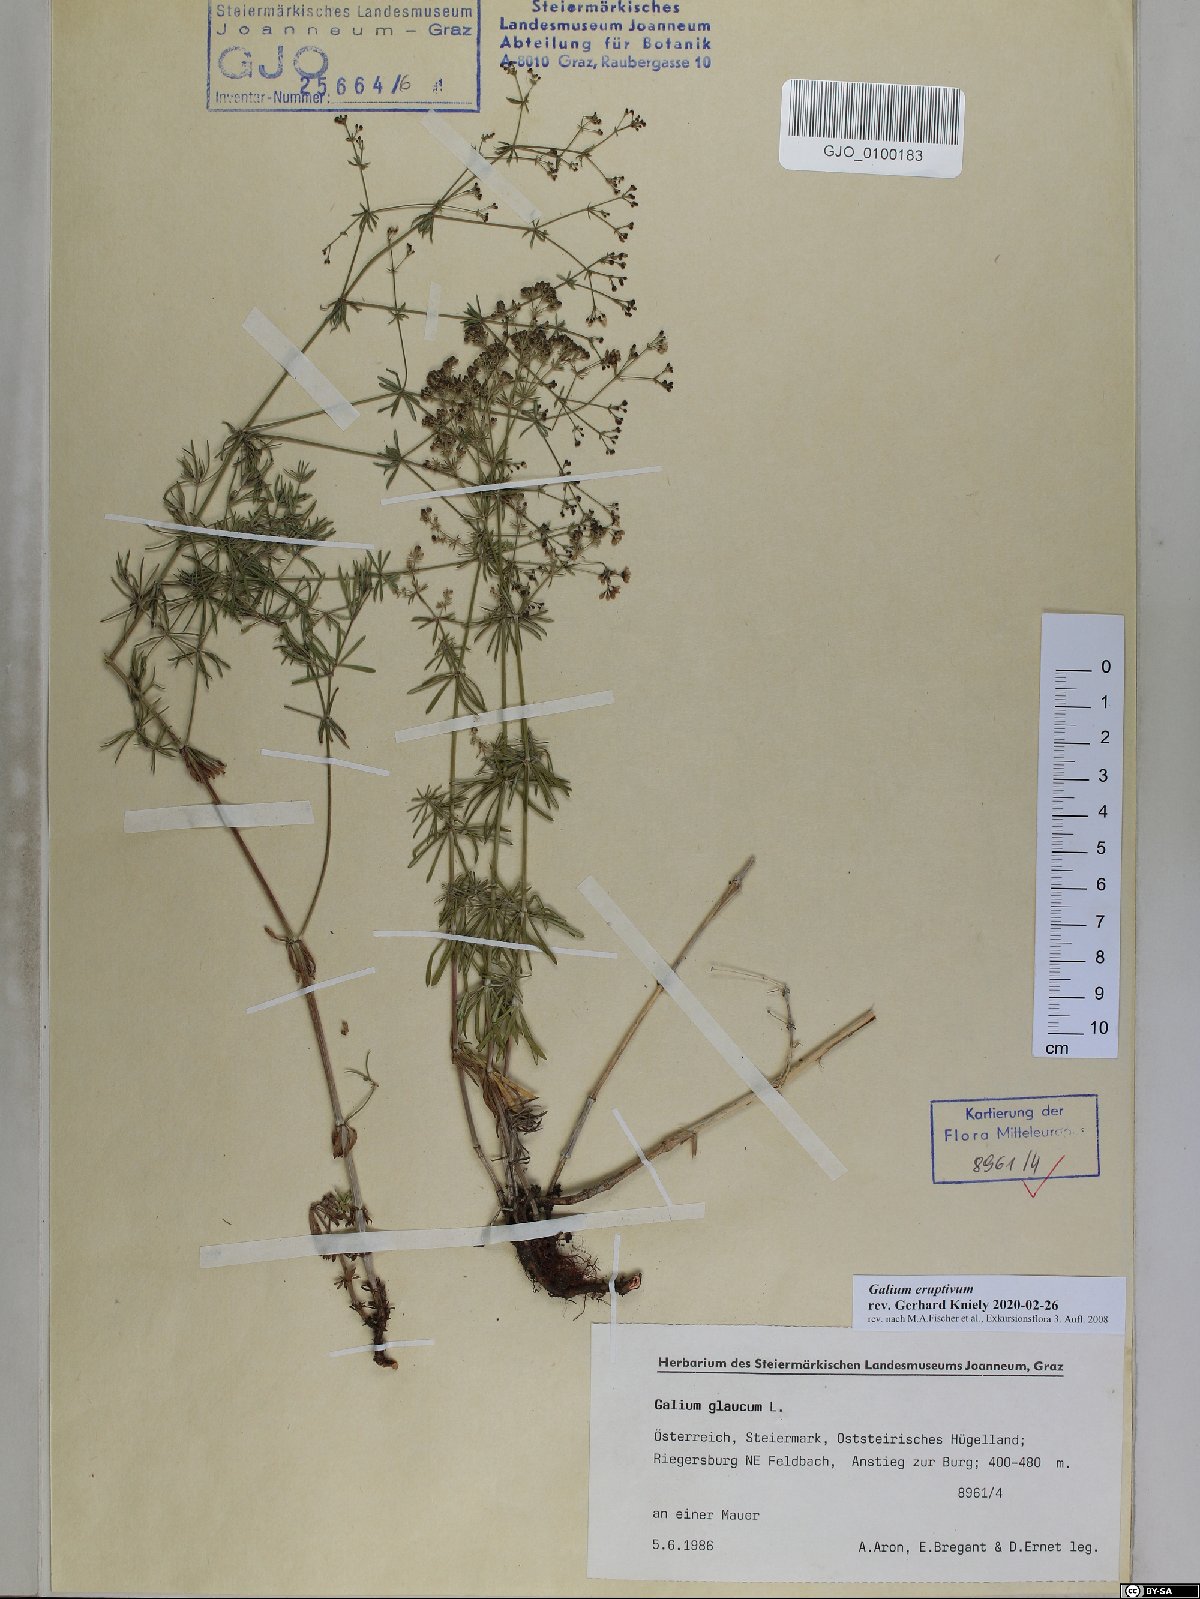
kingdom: Plantae
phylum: Tracheophyta
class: Magnoliopsida
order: Gentianales
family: Rubiaceae
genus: Galium
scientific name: Galium eruptivum
